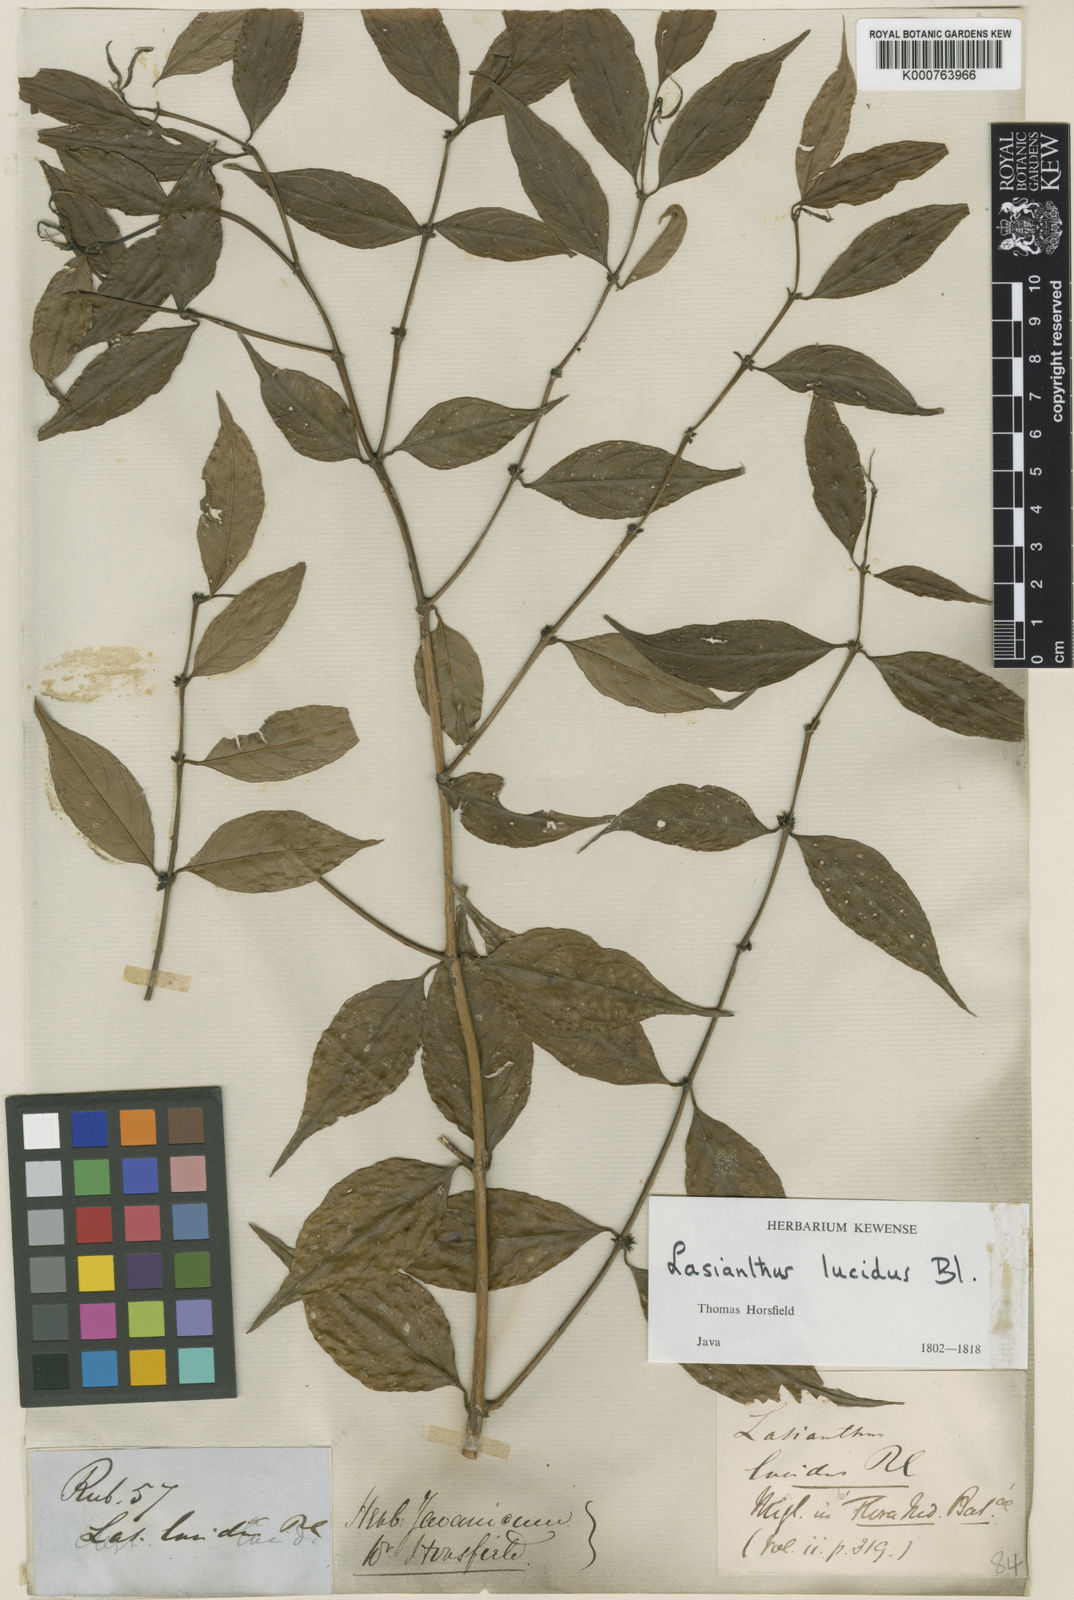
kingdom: Plantae
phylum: Tracheophyta
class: Magnoliopsida
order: Gentianales
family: Rubiaceae
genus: Lasianthus
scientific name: Lasianthus lucidus
